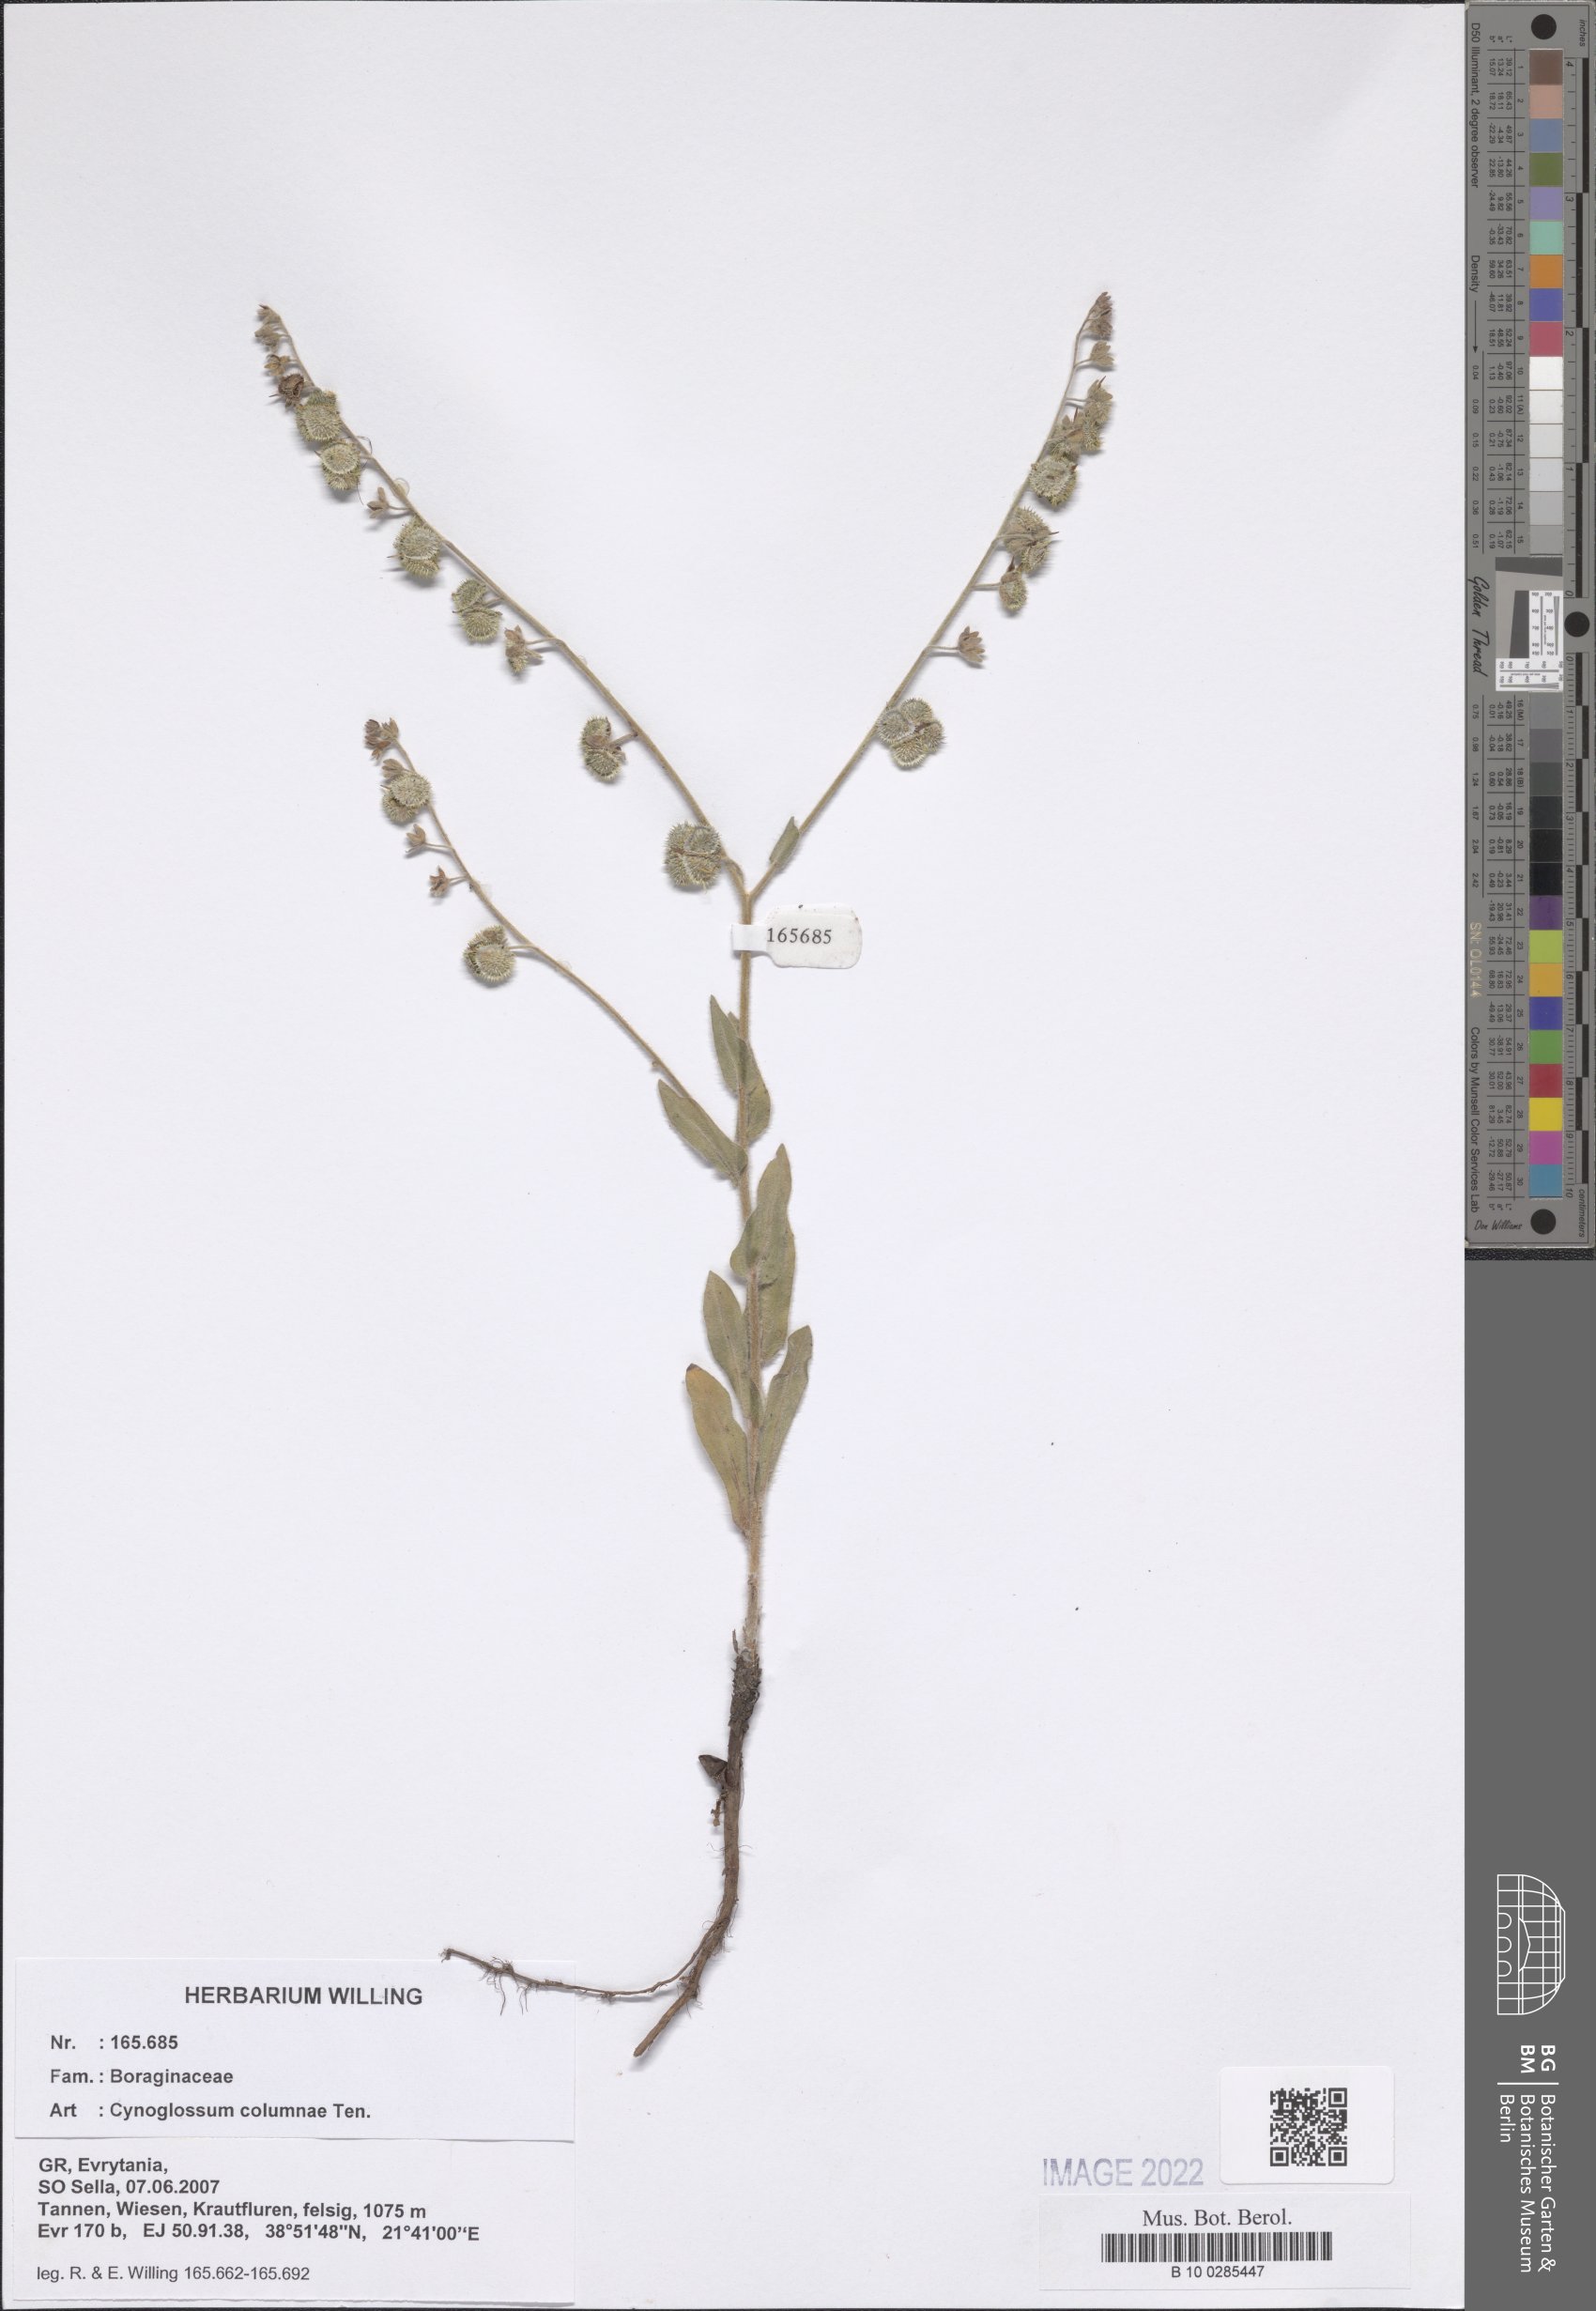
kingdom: Plantae
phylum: Tracheophyta
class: Magnoliopsida
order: Boraginales
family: Boraginaceae
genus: Rindera
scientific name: Rindera columnae
